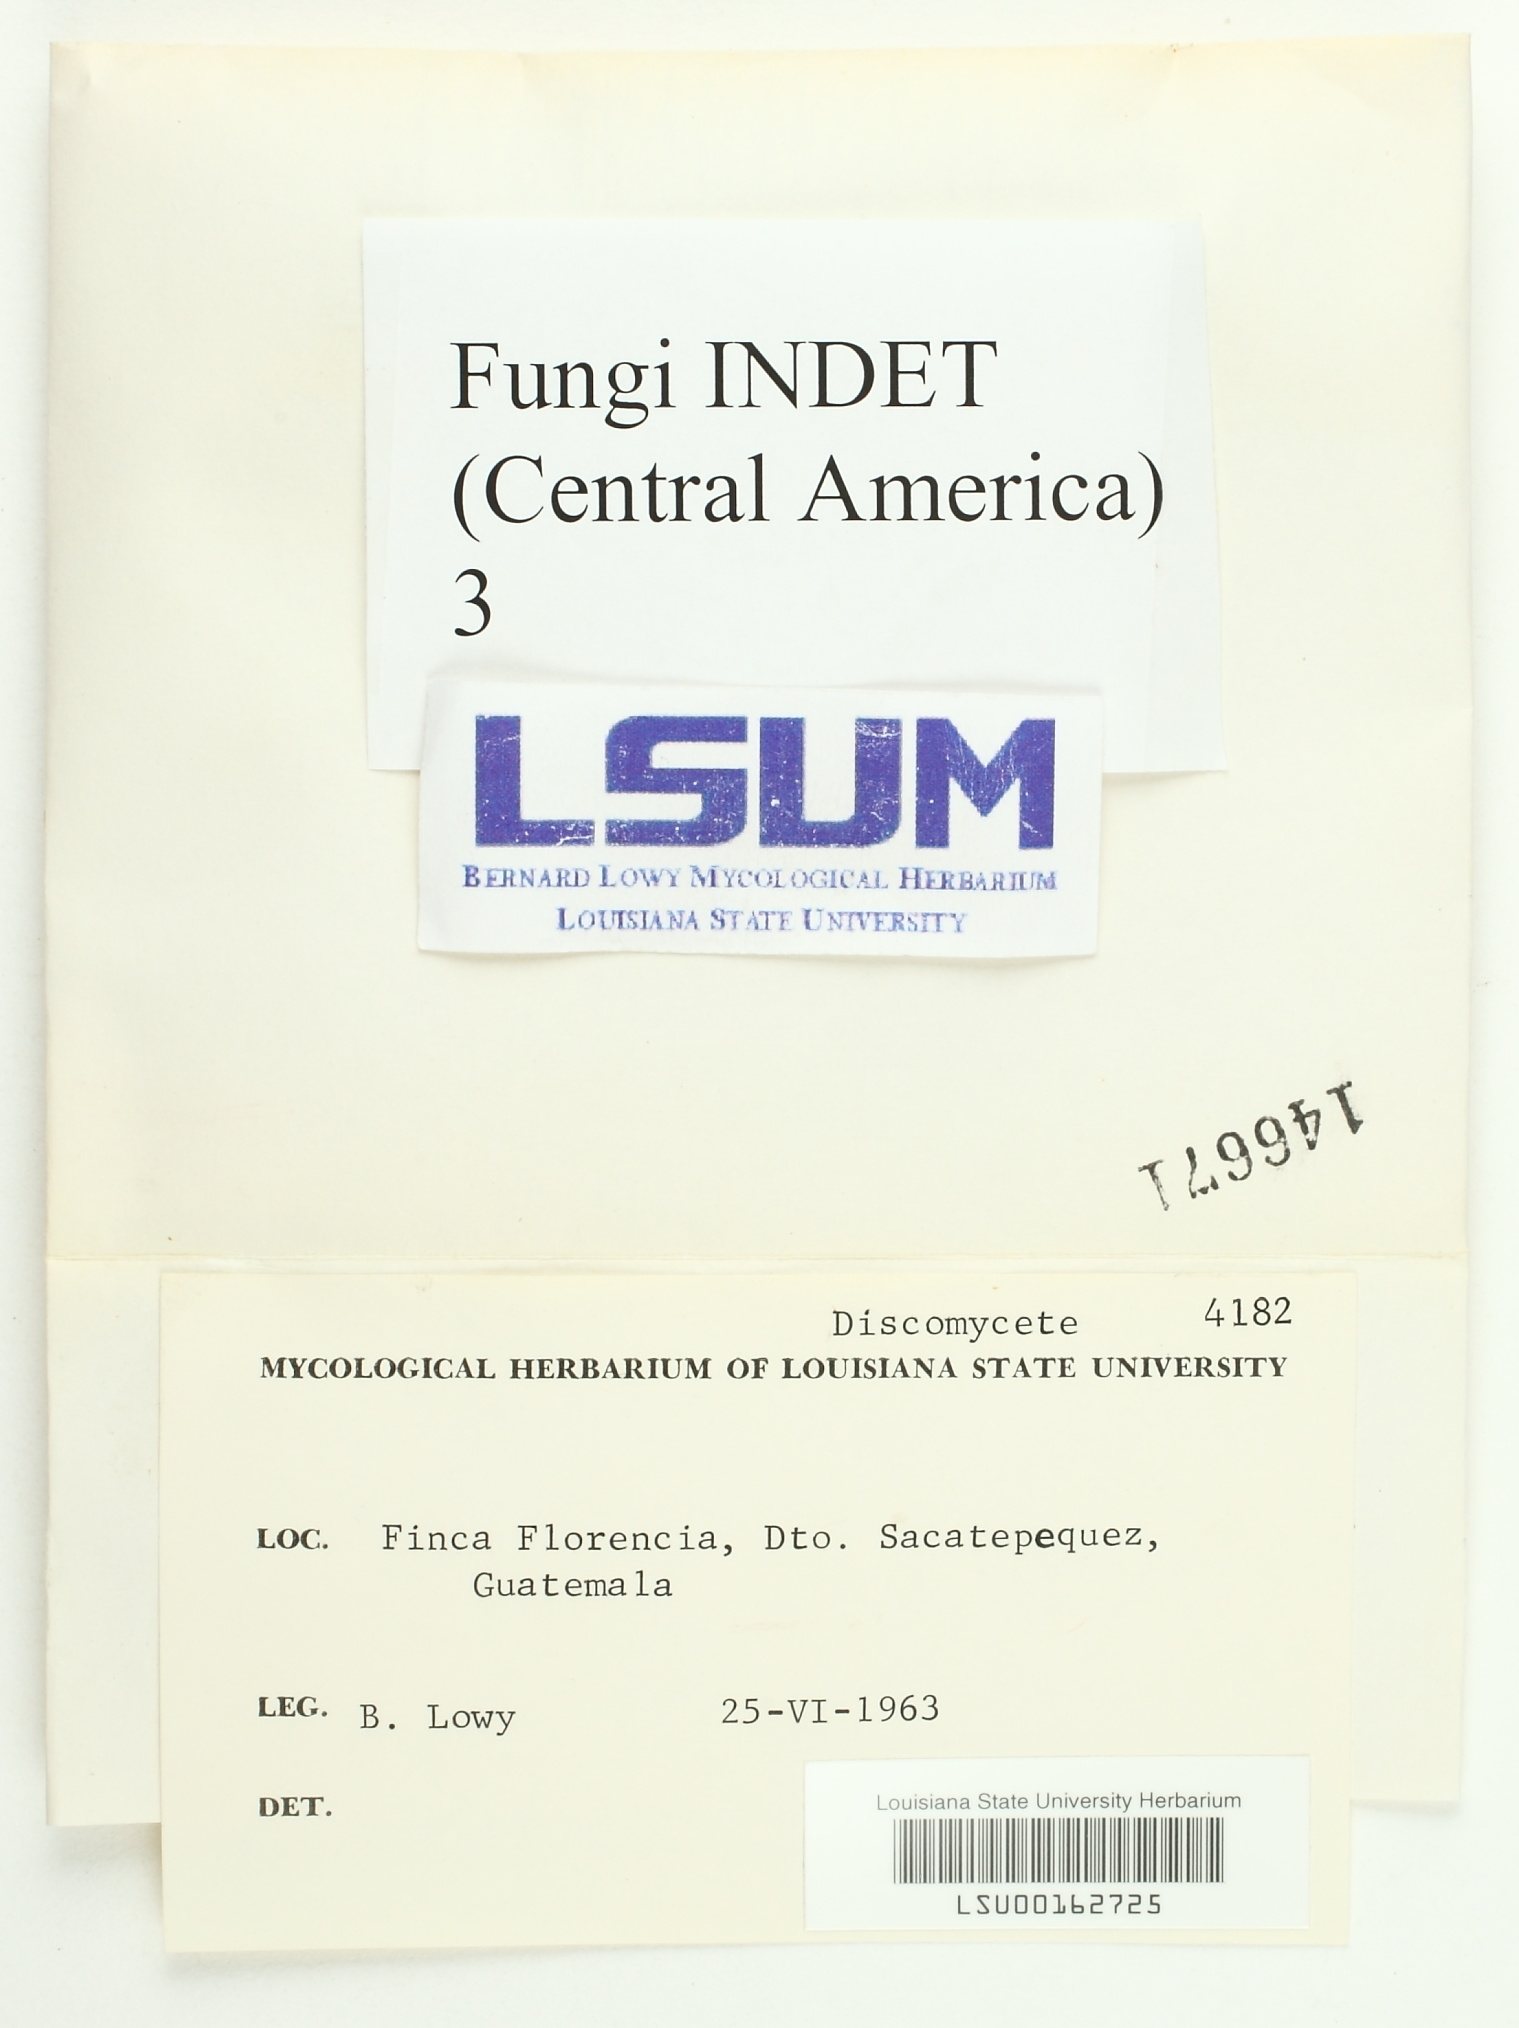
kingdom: Fungi
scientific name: Fungi
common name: Fungi
